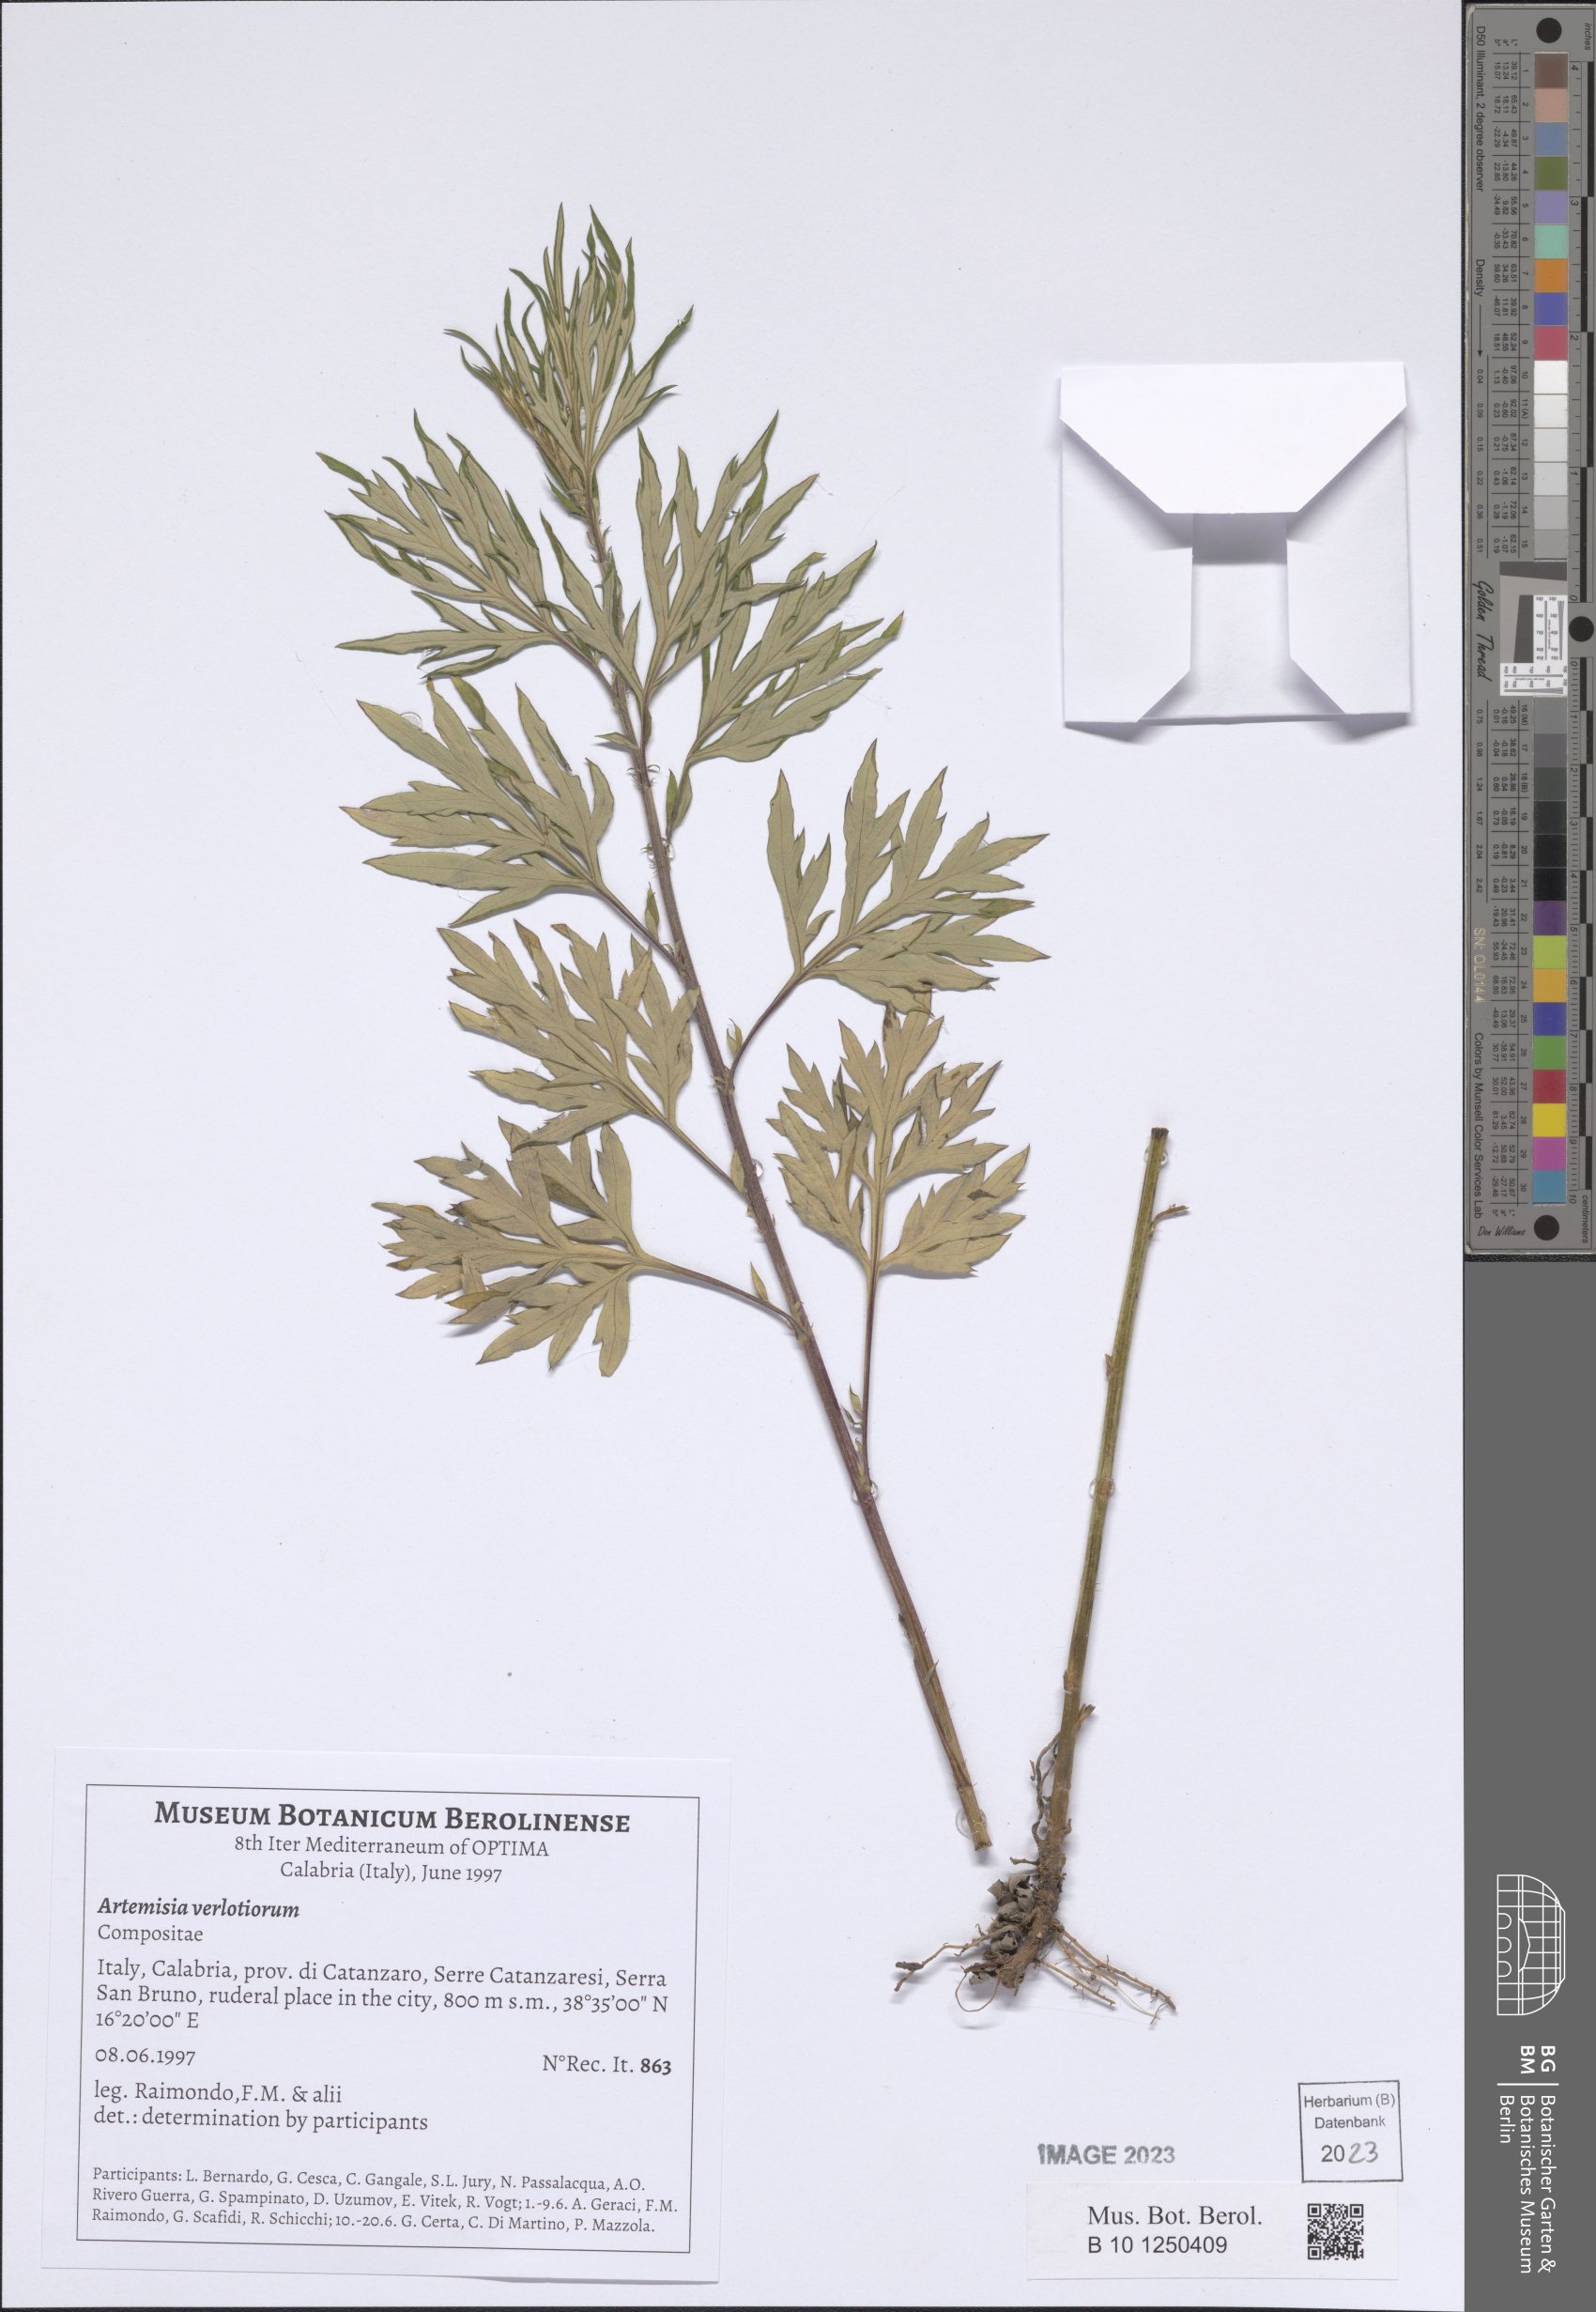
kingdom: Plantae
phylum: Tracheophyta
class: Magnoliopsida
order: Asterales
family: Asteraceae
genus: Artemisia
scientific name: Artemisia verlotiorum
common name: Chinese mugwort
